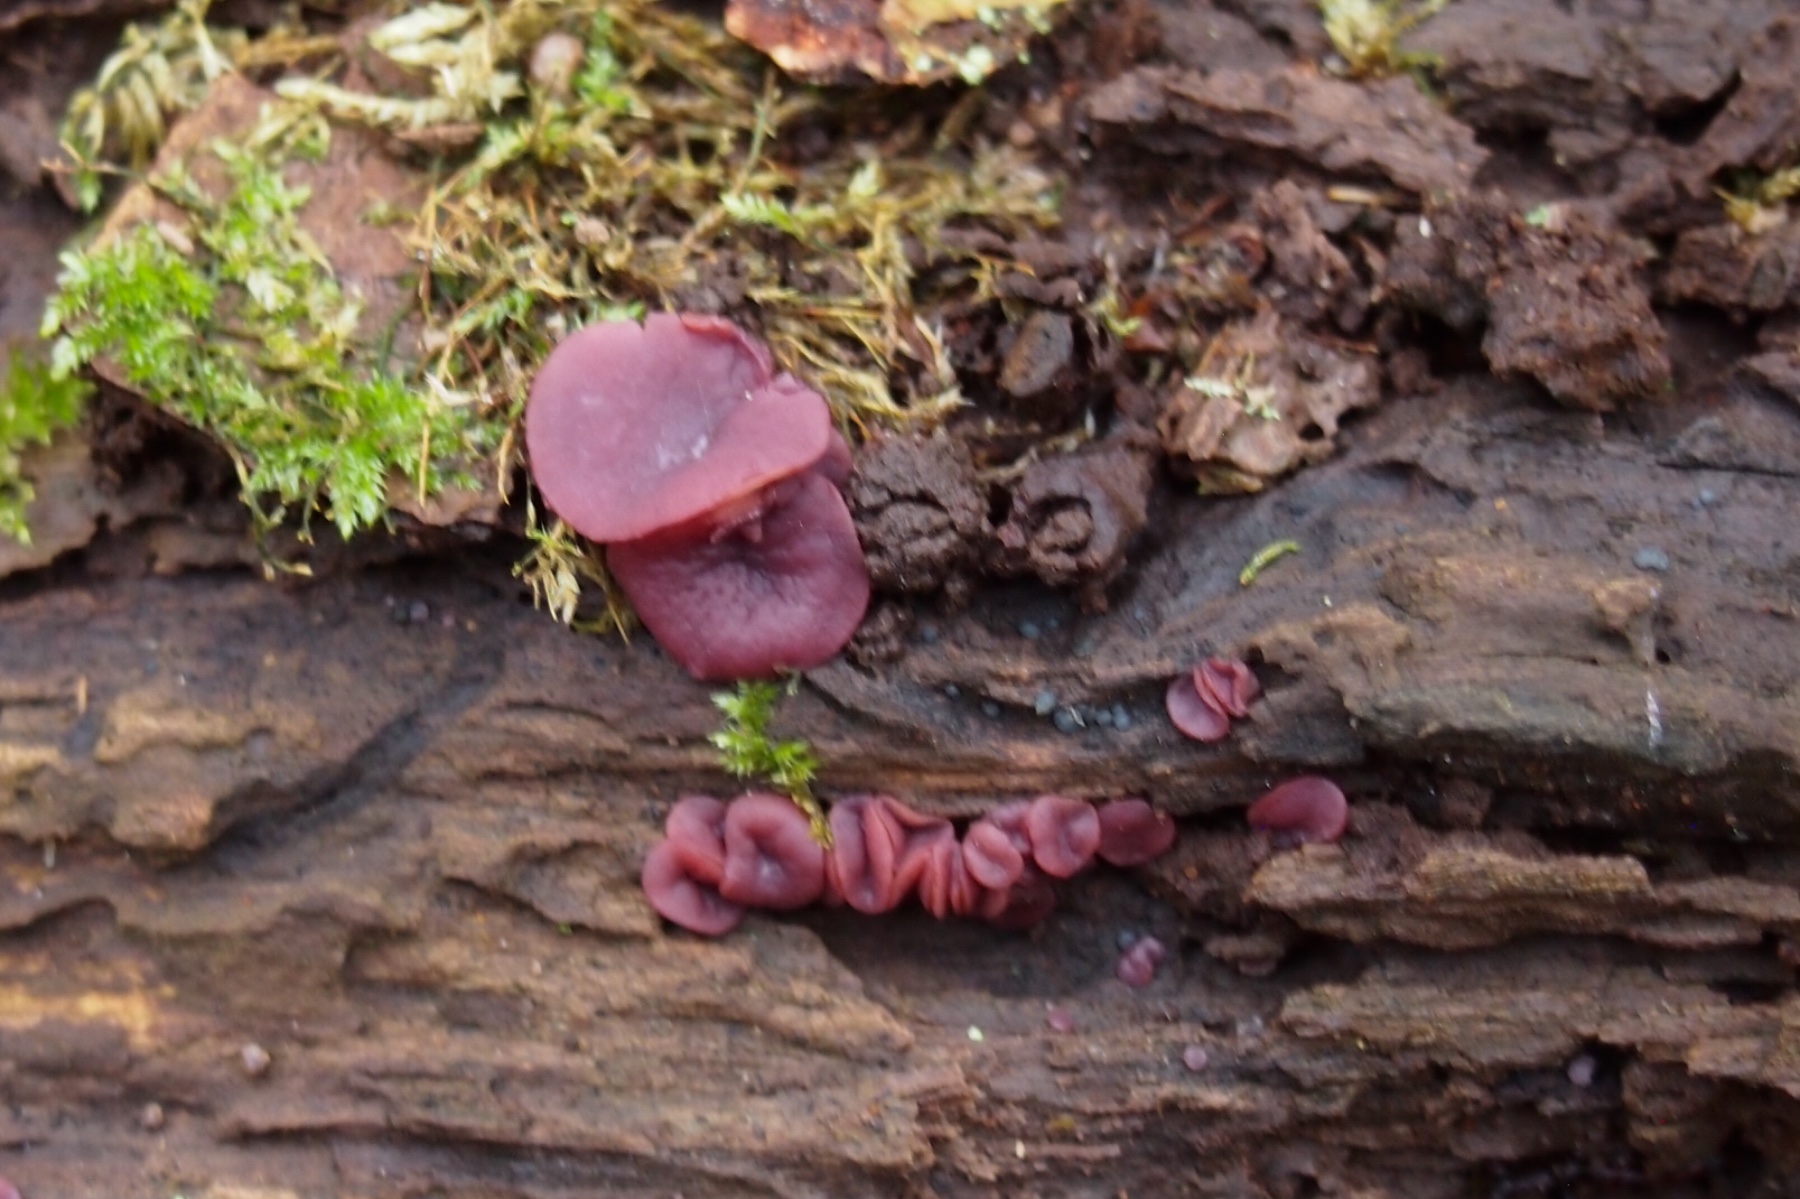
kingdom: Fungi
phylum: Ascomycota
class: Leotiomycetes
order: Helotiales
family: Gelatinodiscaceae
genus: Ascocoryne
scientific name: Ascocoryne cylichnium
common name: stor sejskive
